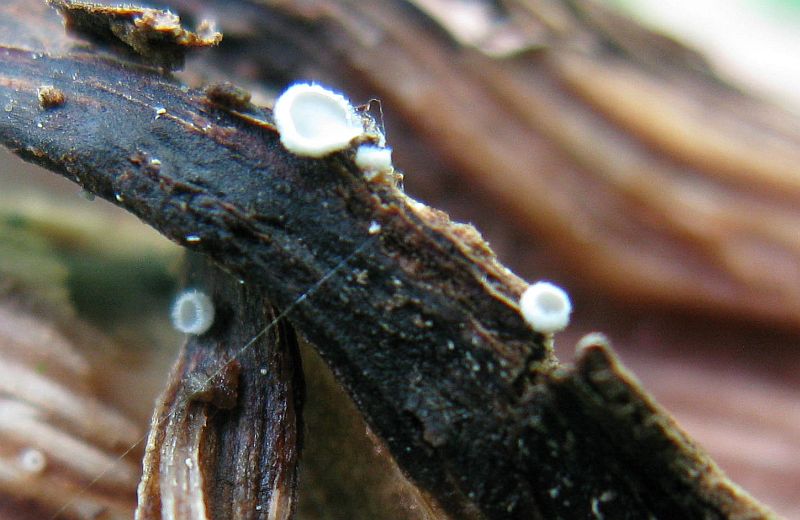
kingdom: Fungi
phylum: Basidiomycota
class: Agaricomycetes
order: Agaricales
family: Niaceae
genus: Lachnella
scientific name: Lachnella villosa
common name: hvid frynserede
